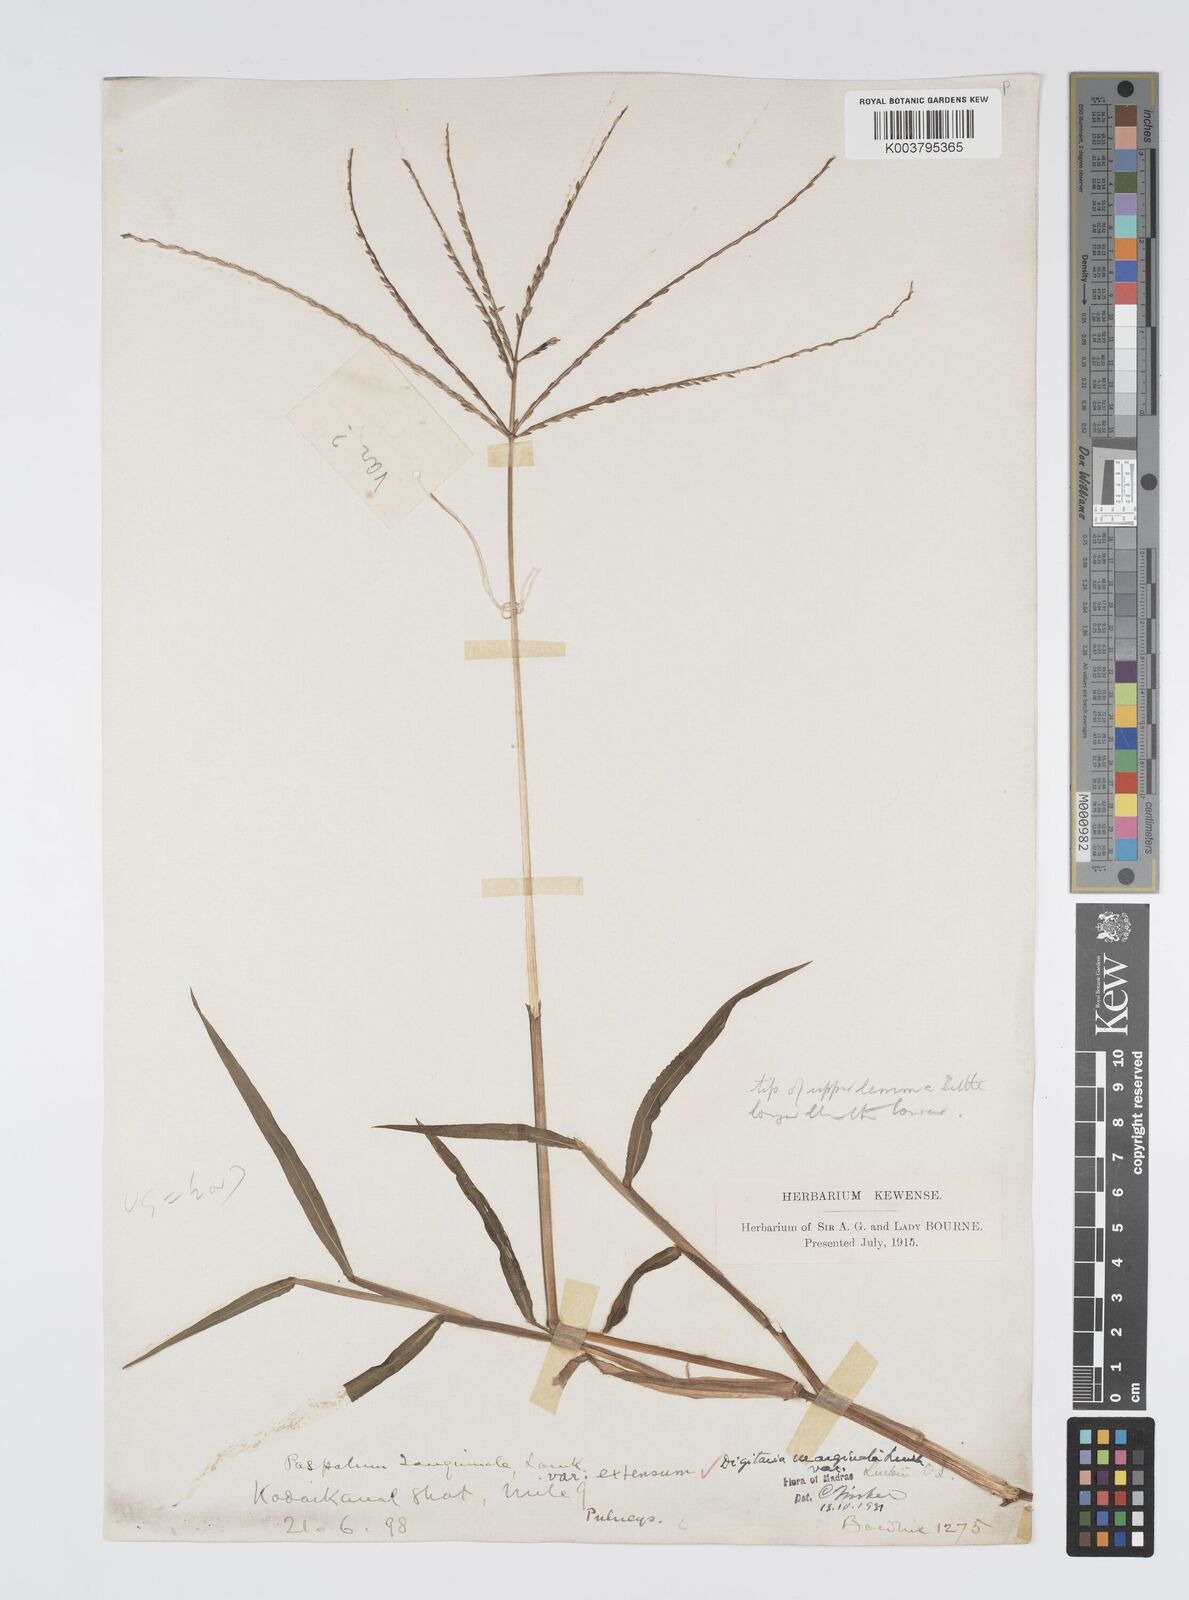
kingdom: Plantae
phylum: Tracheophyta
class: Liliopsida
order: Poales
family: Poaceae
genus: Digitaria
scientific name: Digitaria ciliaris
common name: Tropical finger-grass
